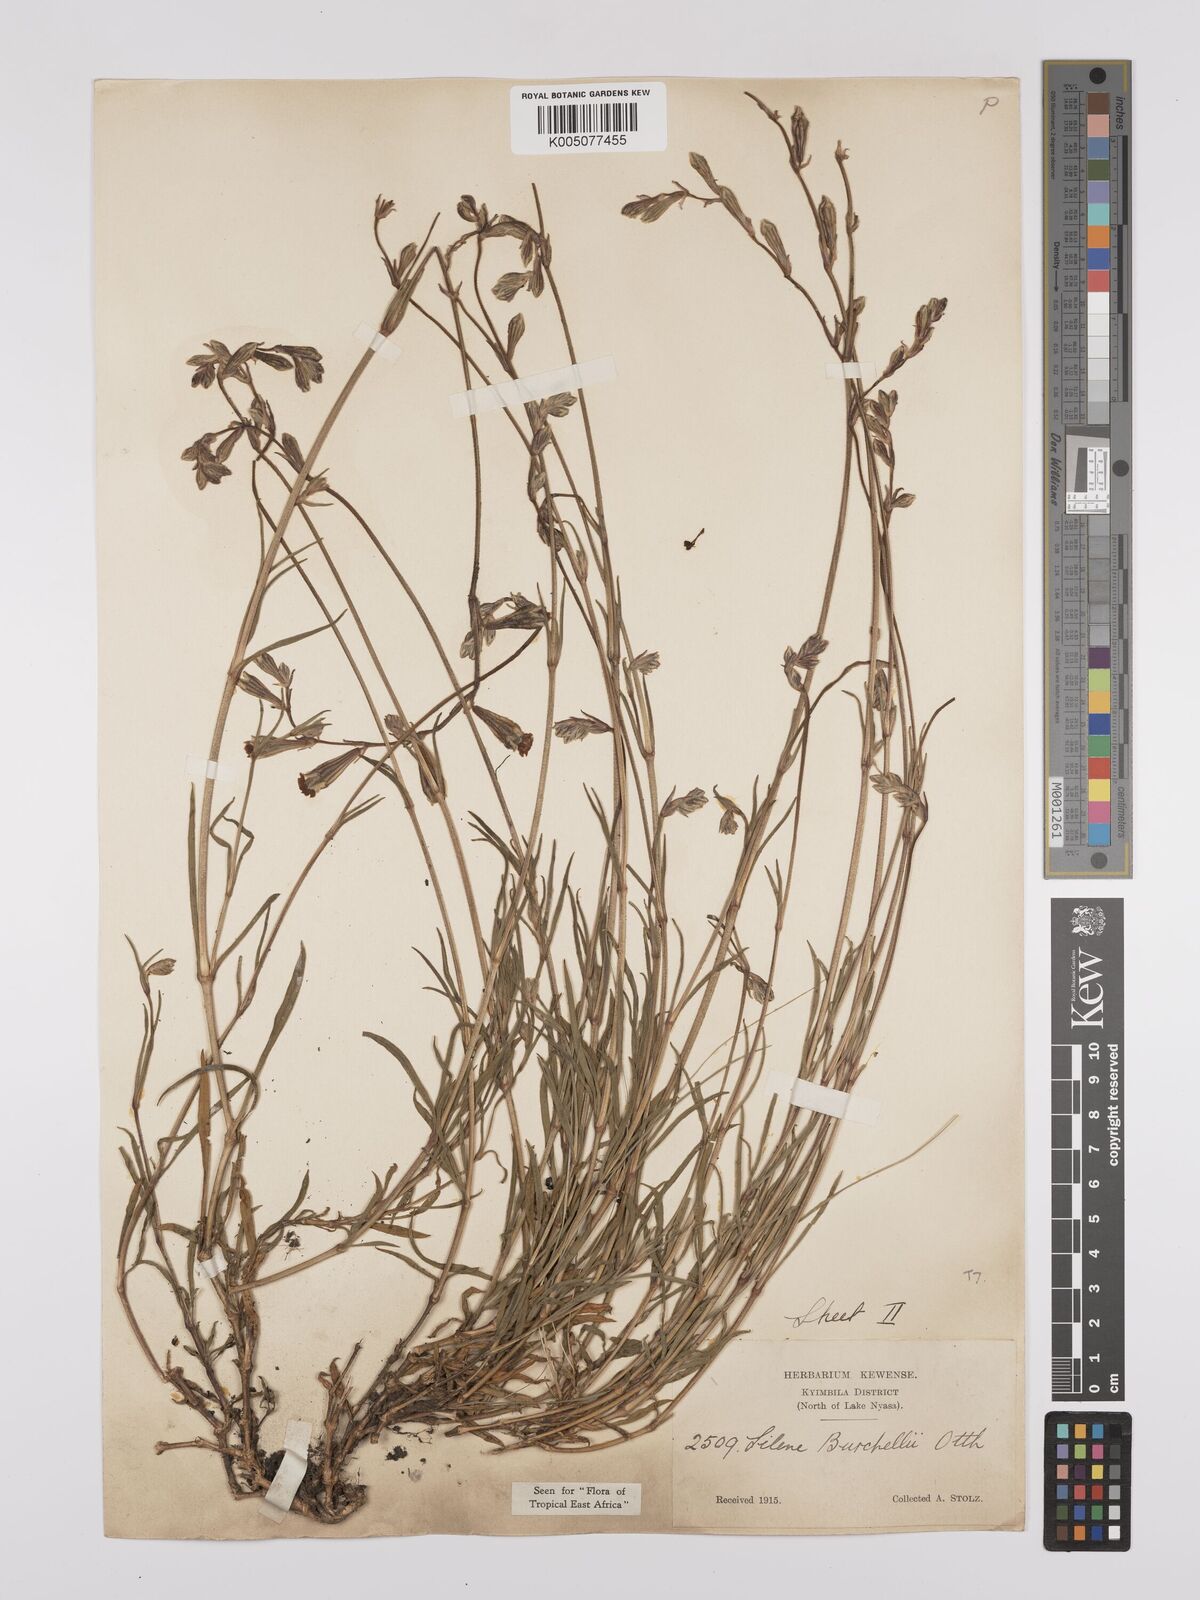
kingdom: Plantae
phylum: Tracheophyta
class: Magnoliopsida
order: Caryophyllales
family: Caryophyllaceae
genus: Silene
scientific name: Silene burchellii
